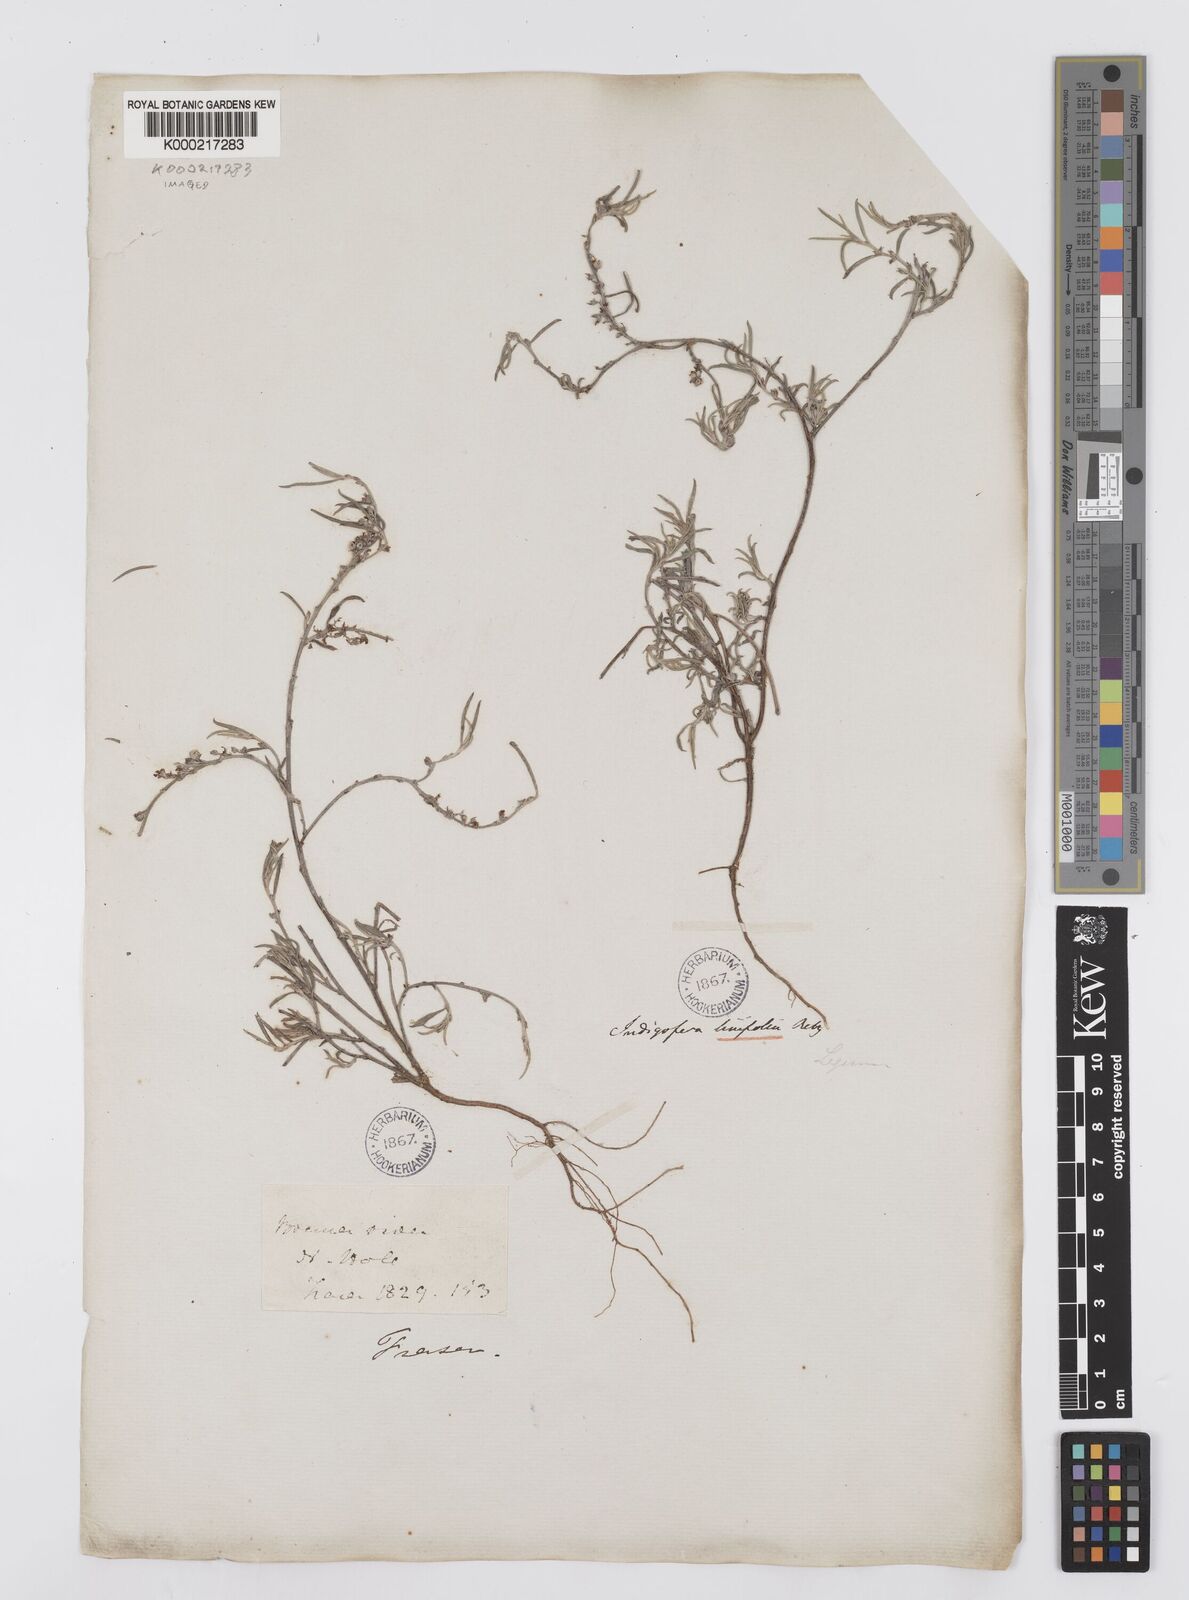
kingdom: Plantae
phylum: Tracheophyta
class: Magnoliopsida
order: Fabales
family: Fabaceae
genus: Indigofera
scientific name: Indigofera linifolia
